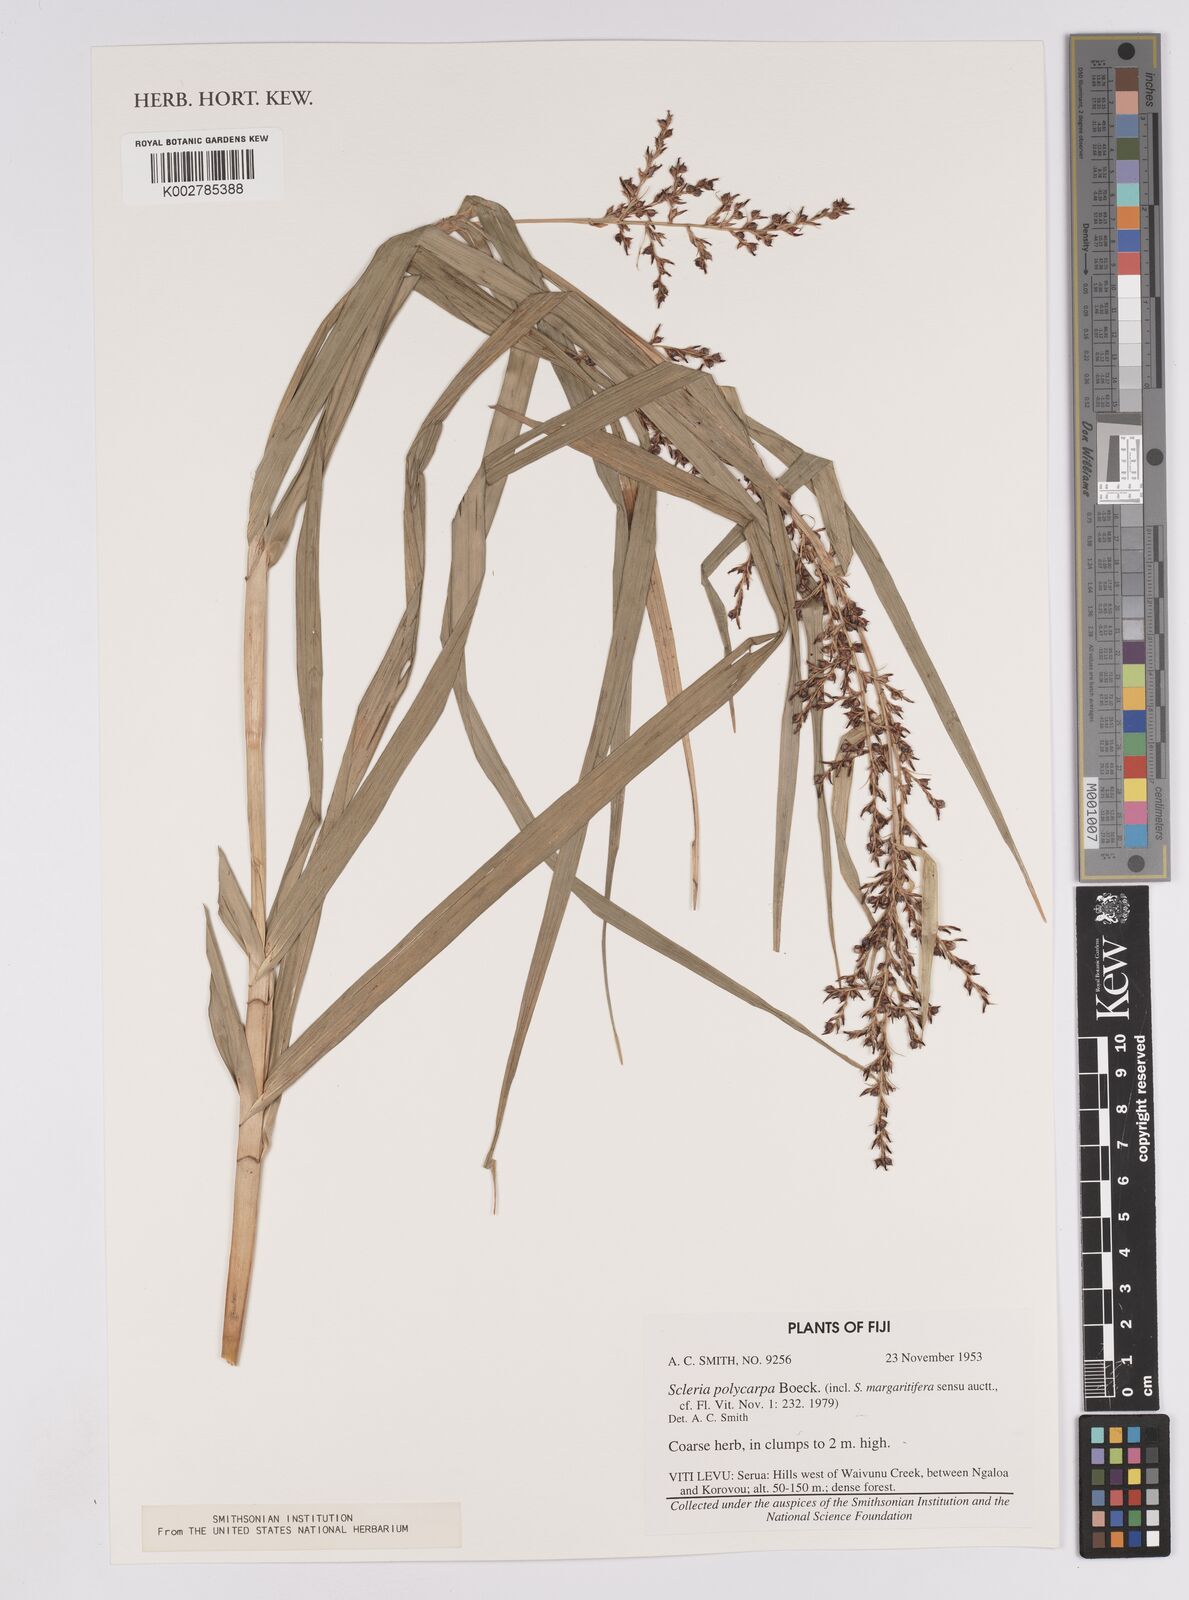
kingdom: Plantae
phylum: Tracheophyta
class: Liliopsida
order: Poales
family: Cyperaceae
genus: Scleria
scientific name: Scleria polycarpa
